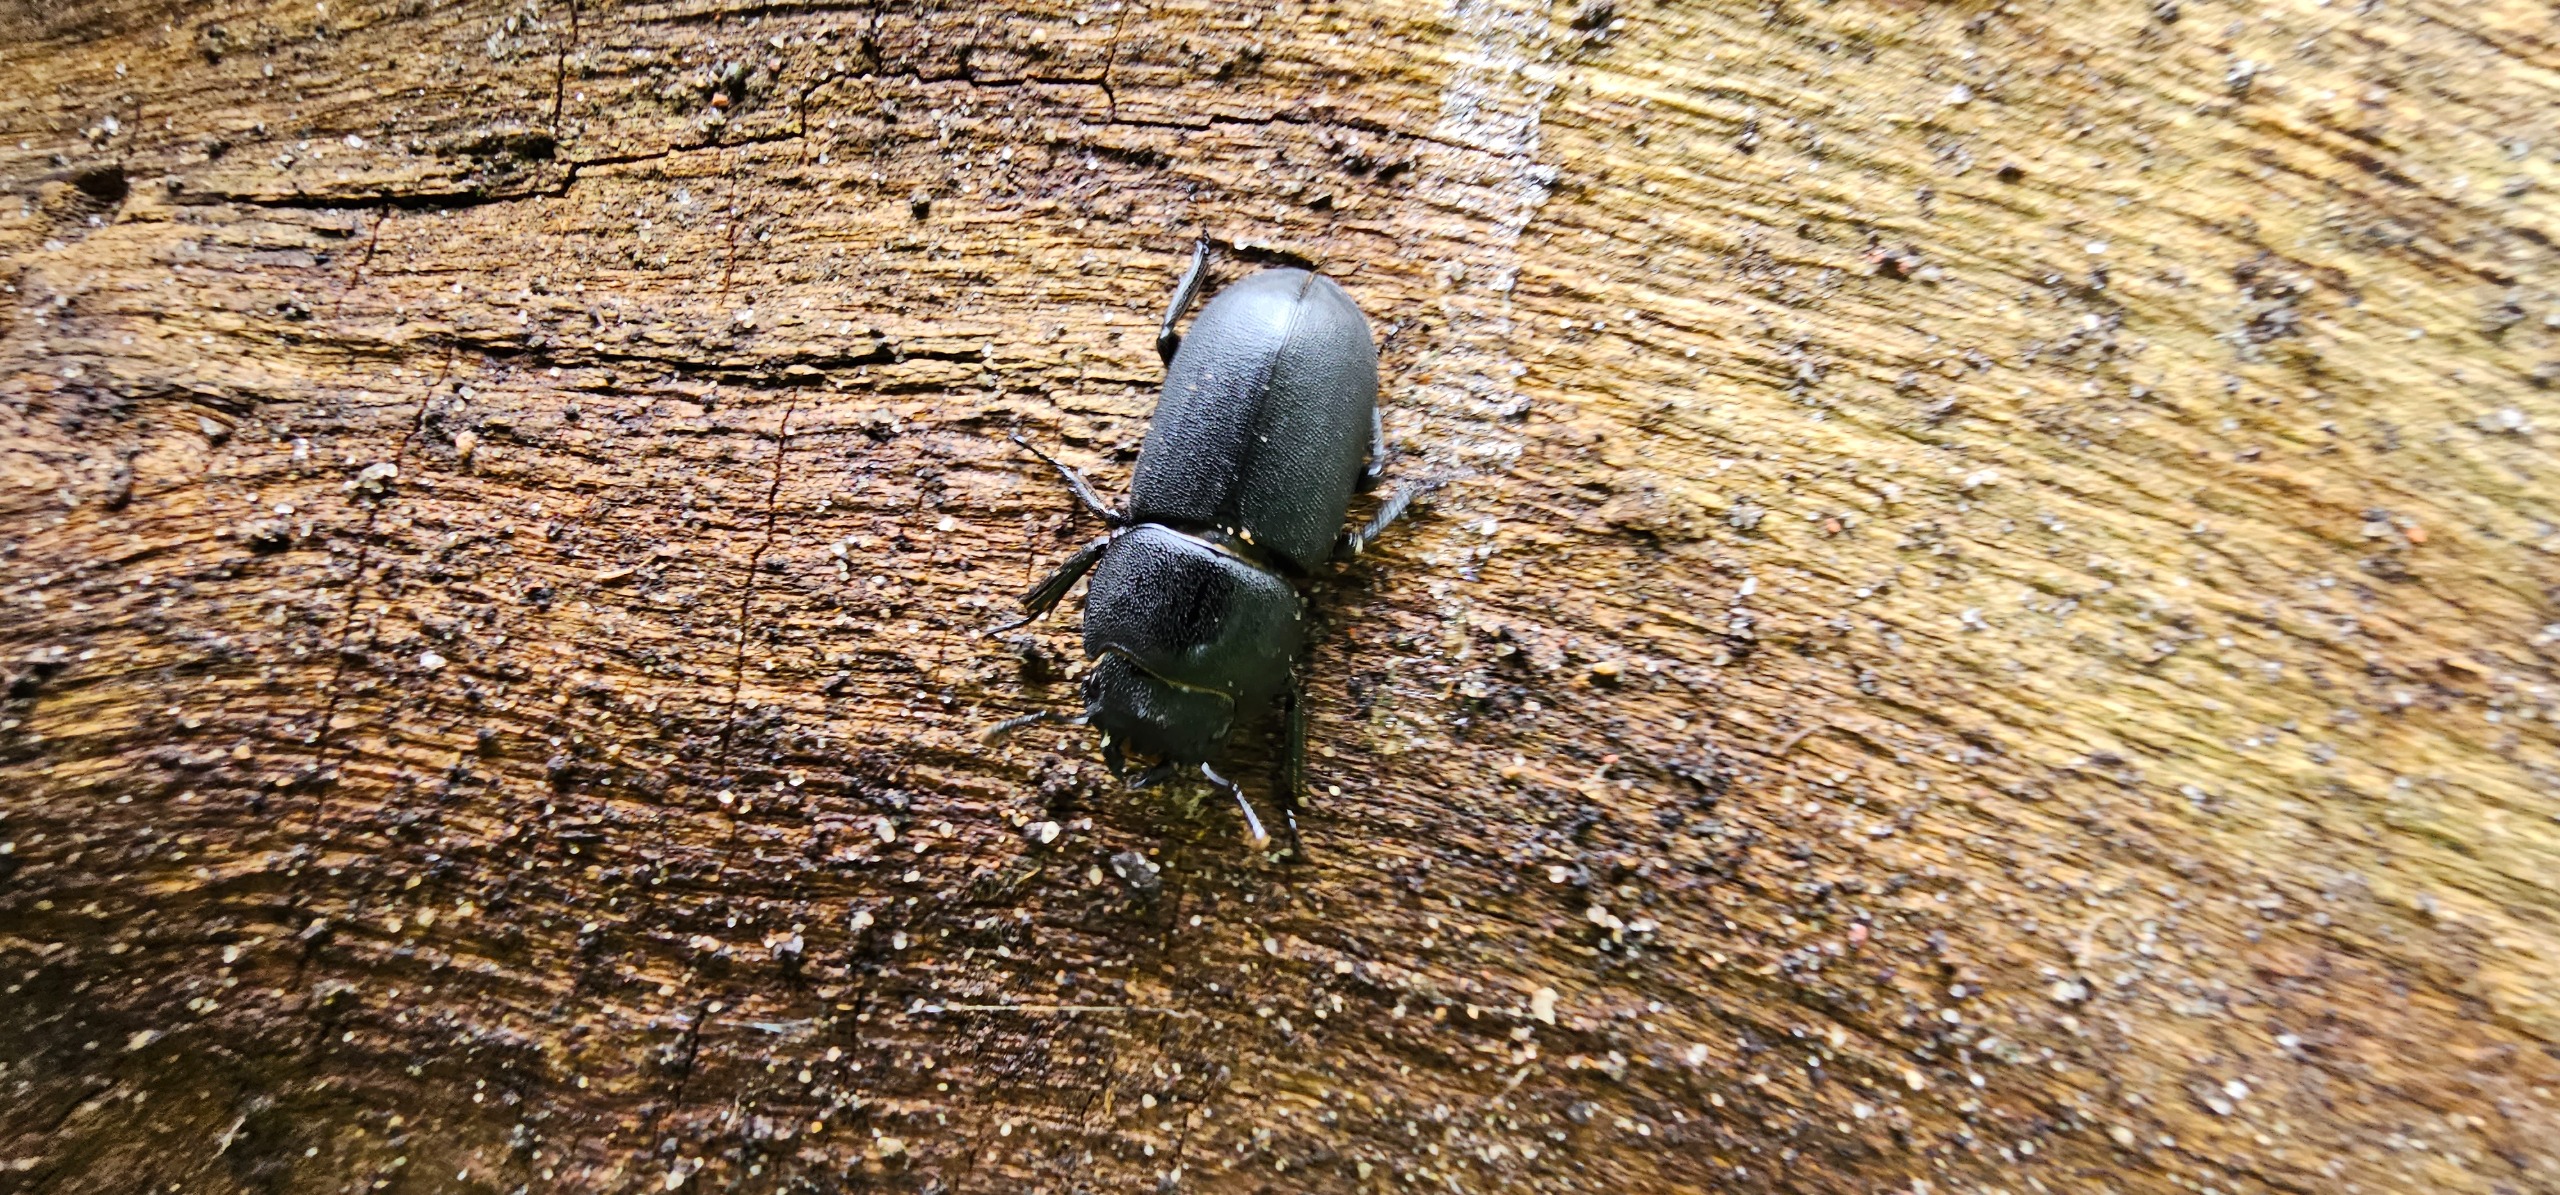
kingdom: Animalia
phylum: Arthropoda
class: Insecta
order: Coleoptera
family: Lucanidae
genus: Dorcus
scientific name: Dorcus parallelipipedus
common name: Bøghjort
